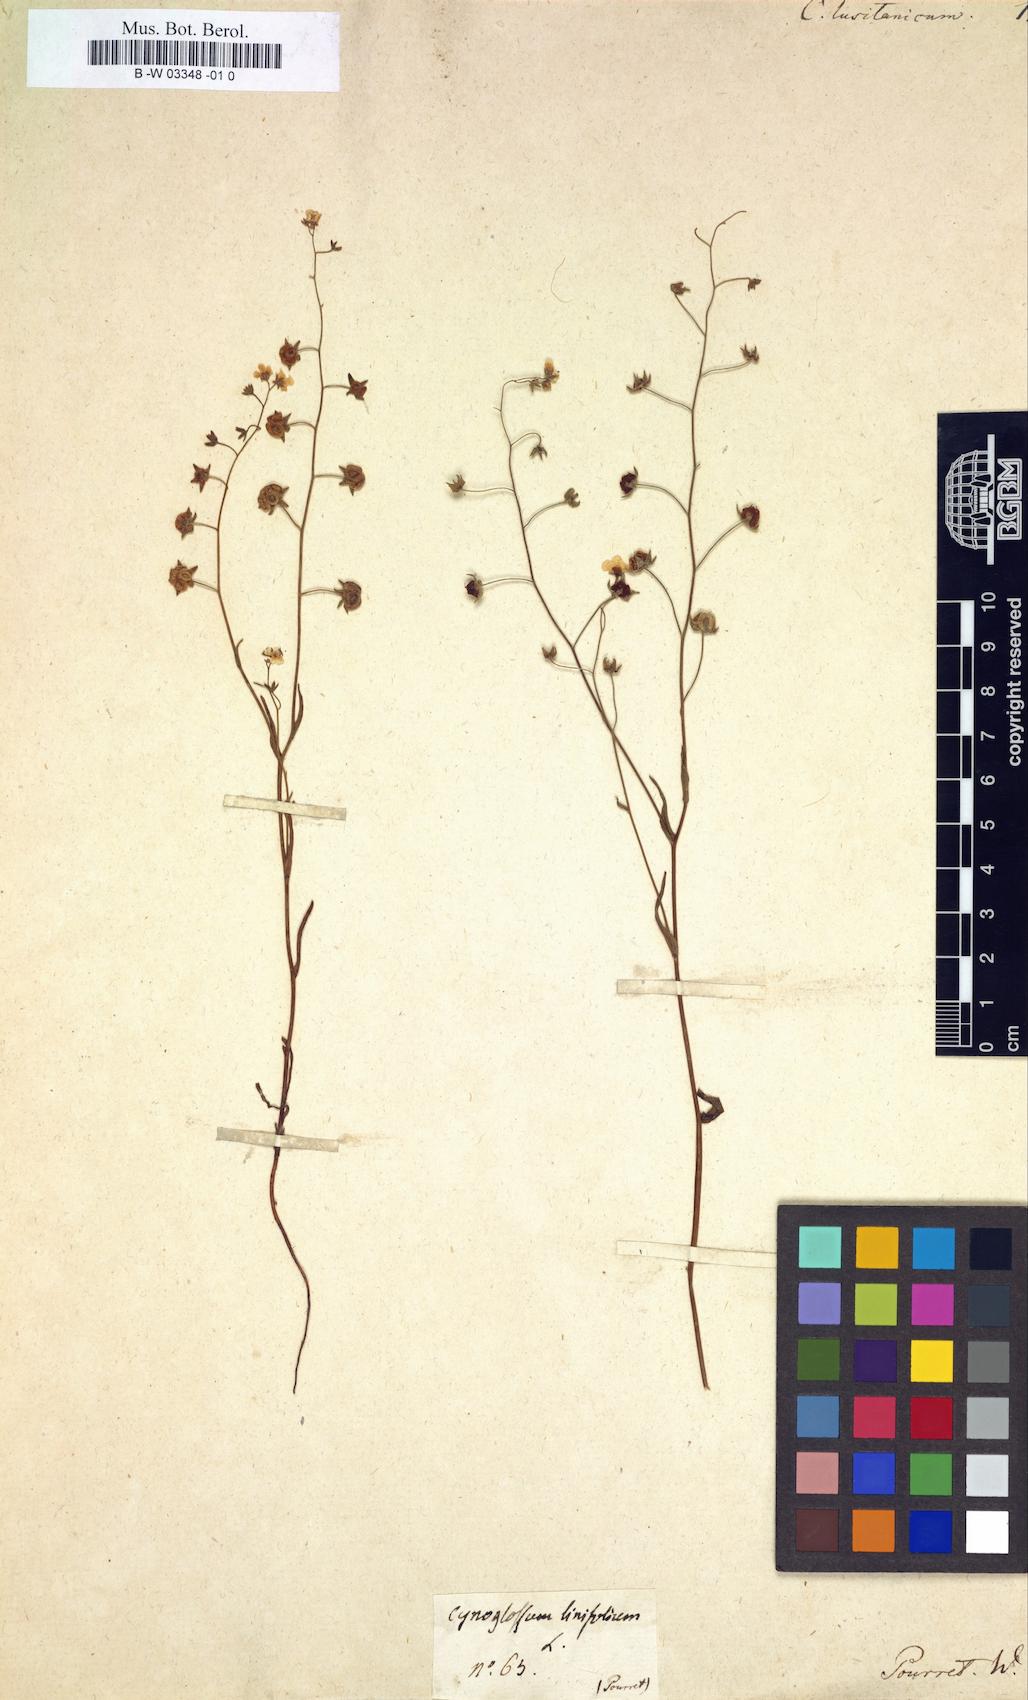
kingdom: Plantae
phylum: Tracheophyta
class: Magnoliopsida
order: Boraginales
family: Boraginaceae
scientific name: Boraginaceae
